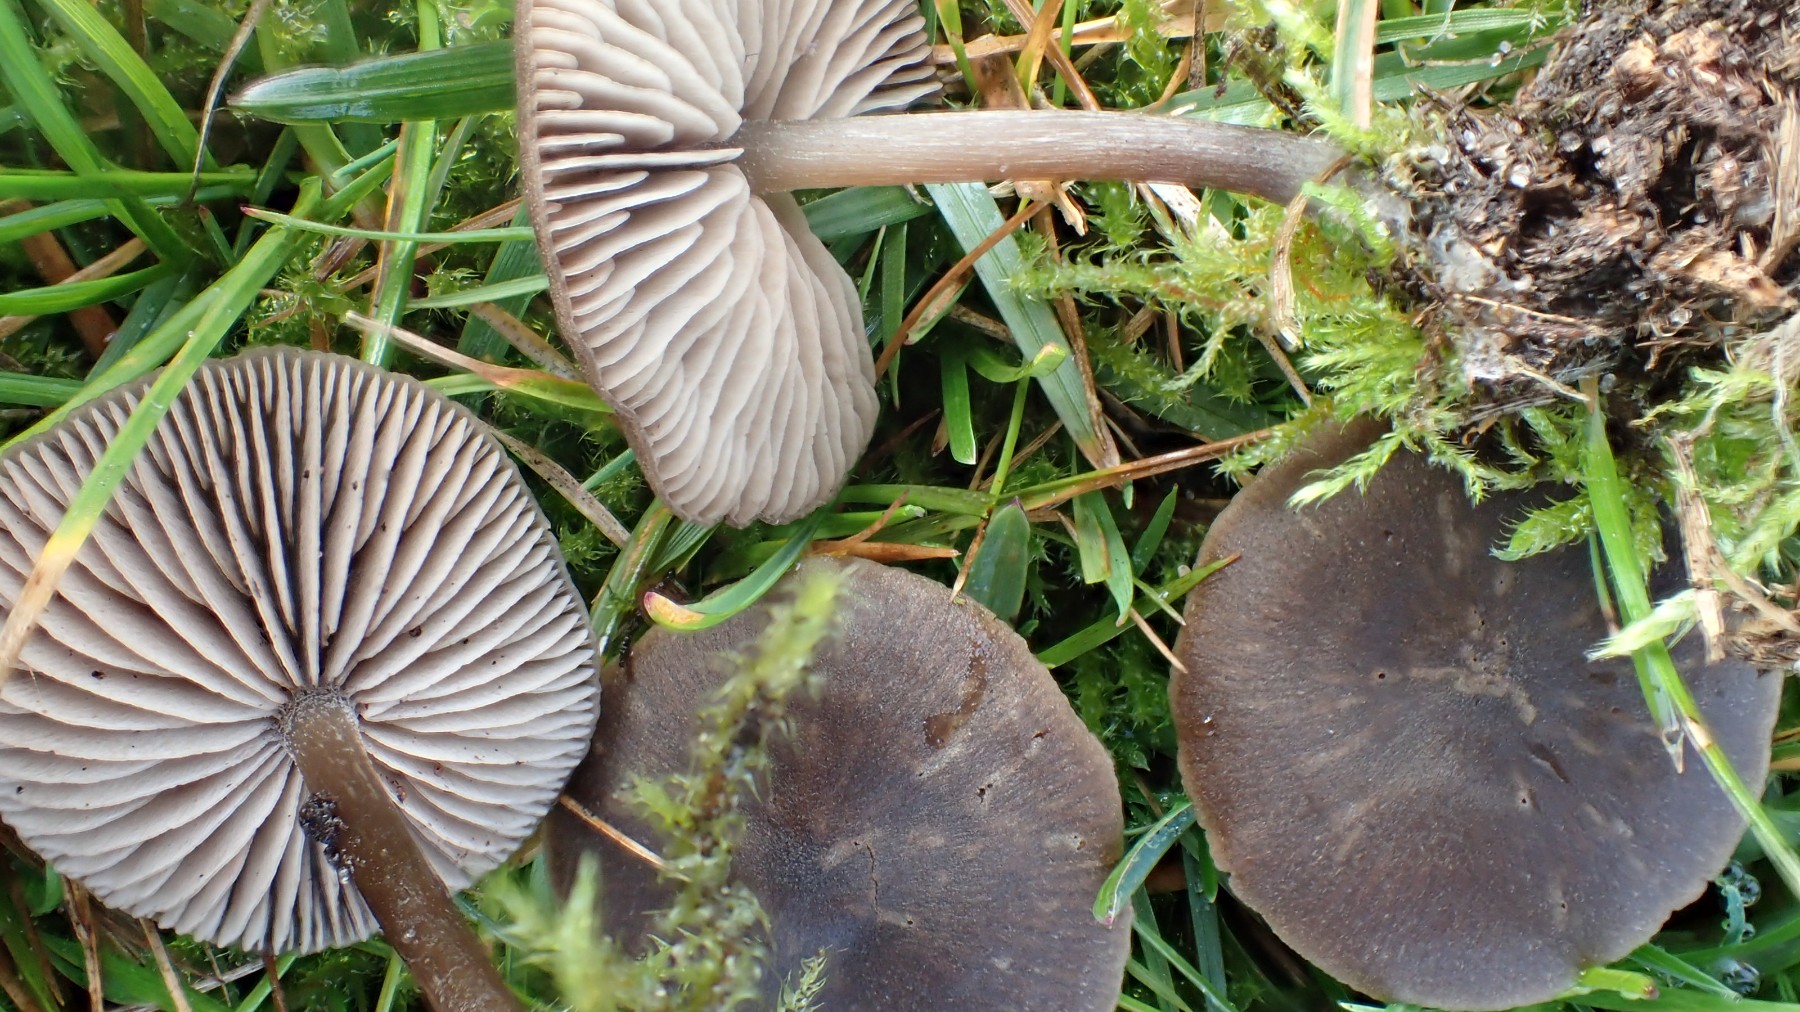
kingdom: Fungi
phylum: Basidiomycota
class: Agaricomycetes
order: Agaricales
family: Entolomataceae
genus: Entoloma
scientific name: Entoloma
